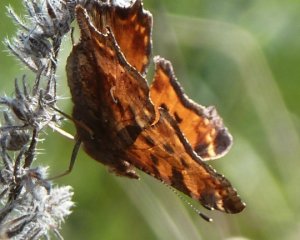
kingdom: Animalia
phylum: Arthropoda
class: Insecta
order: Lepidoptera
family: Nymphalidae
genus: Polygonia
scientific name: Polygonia comma
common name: Eastern Comma
